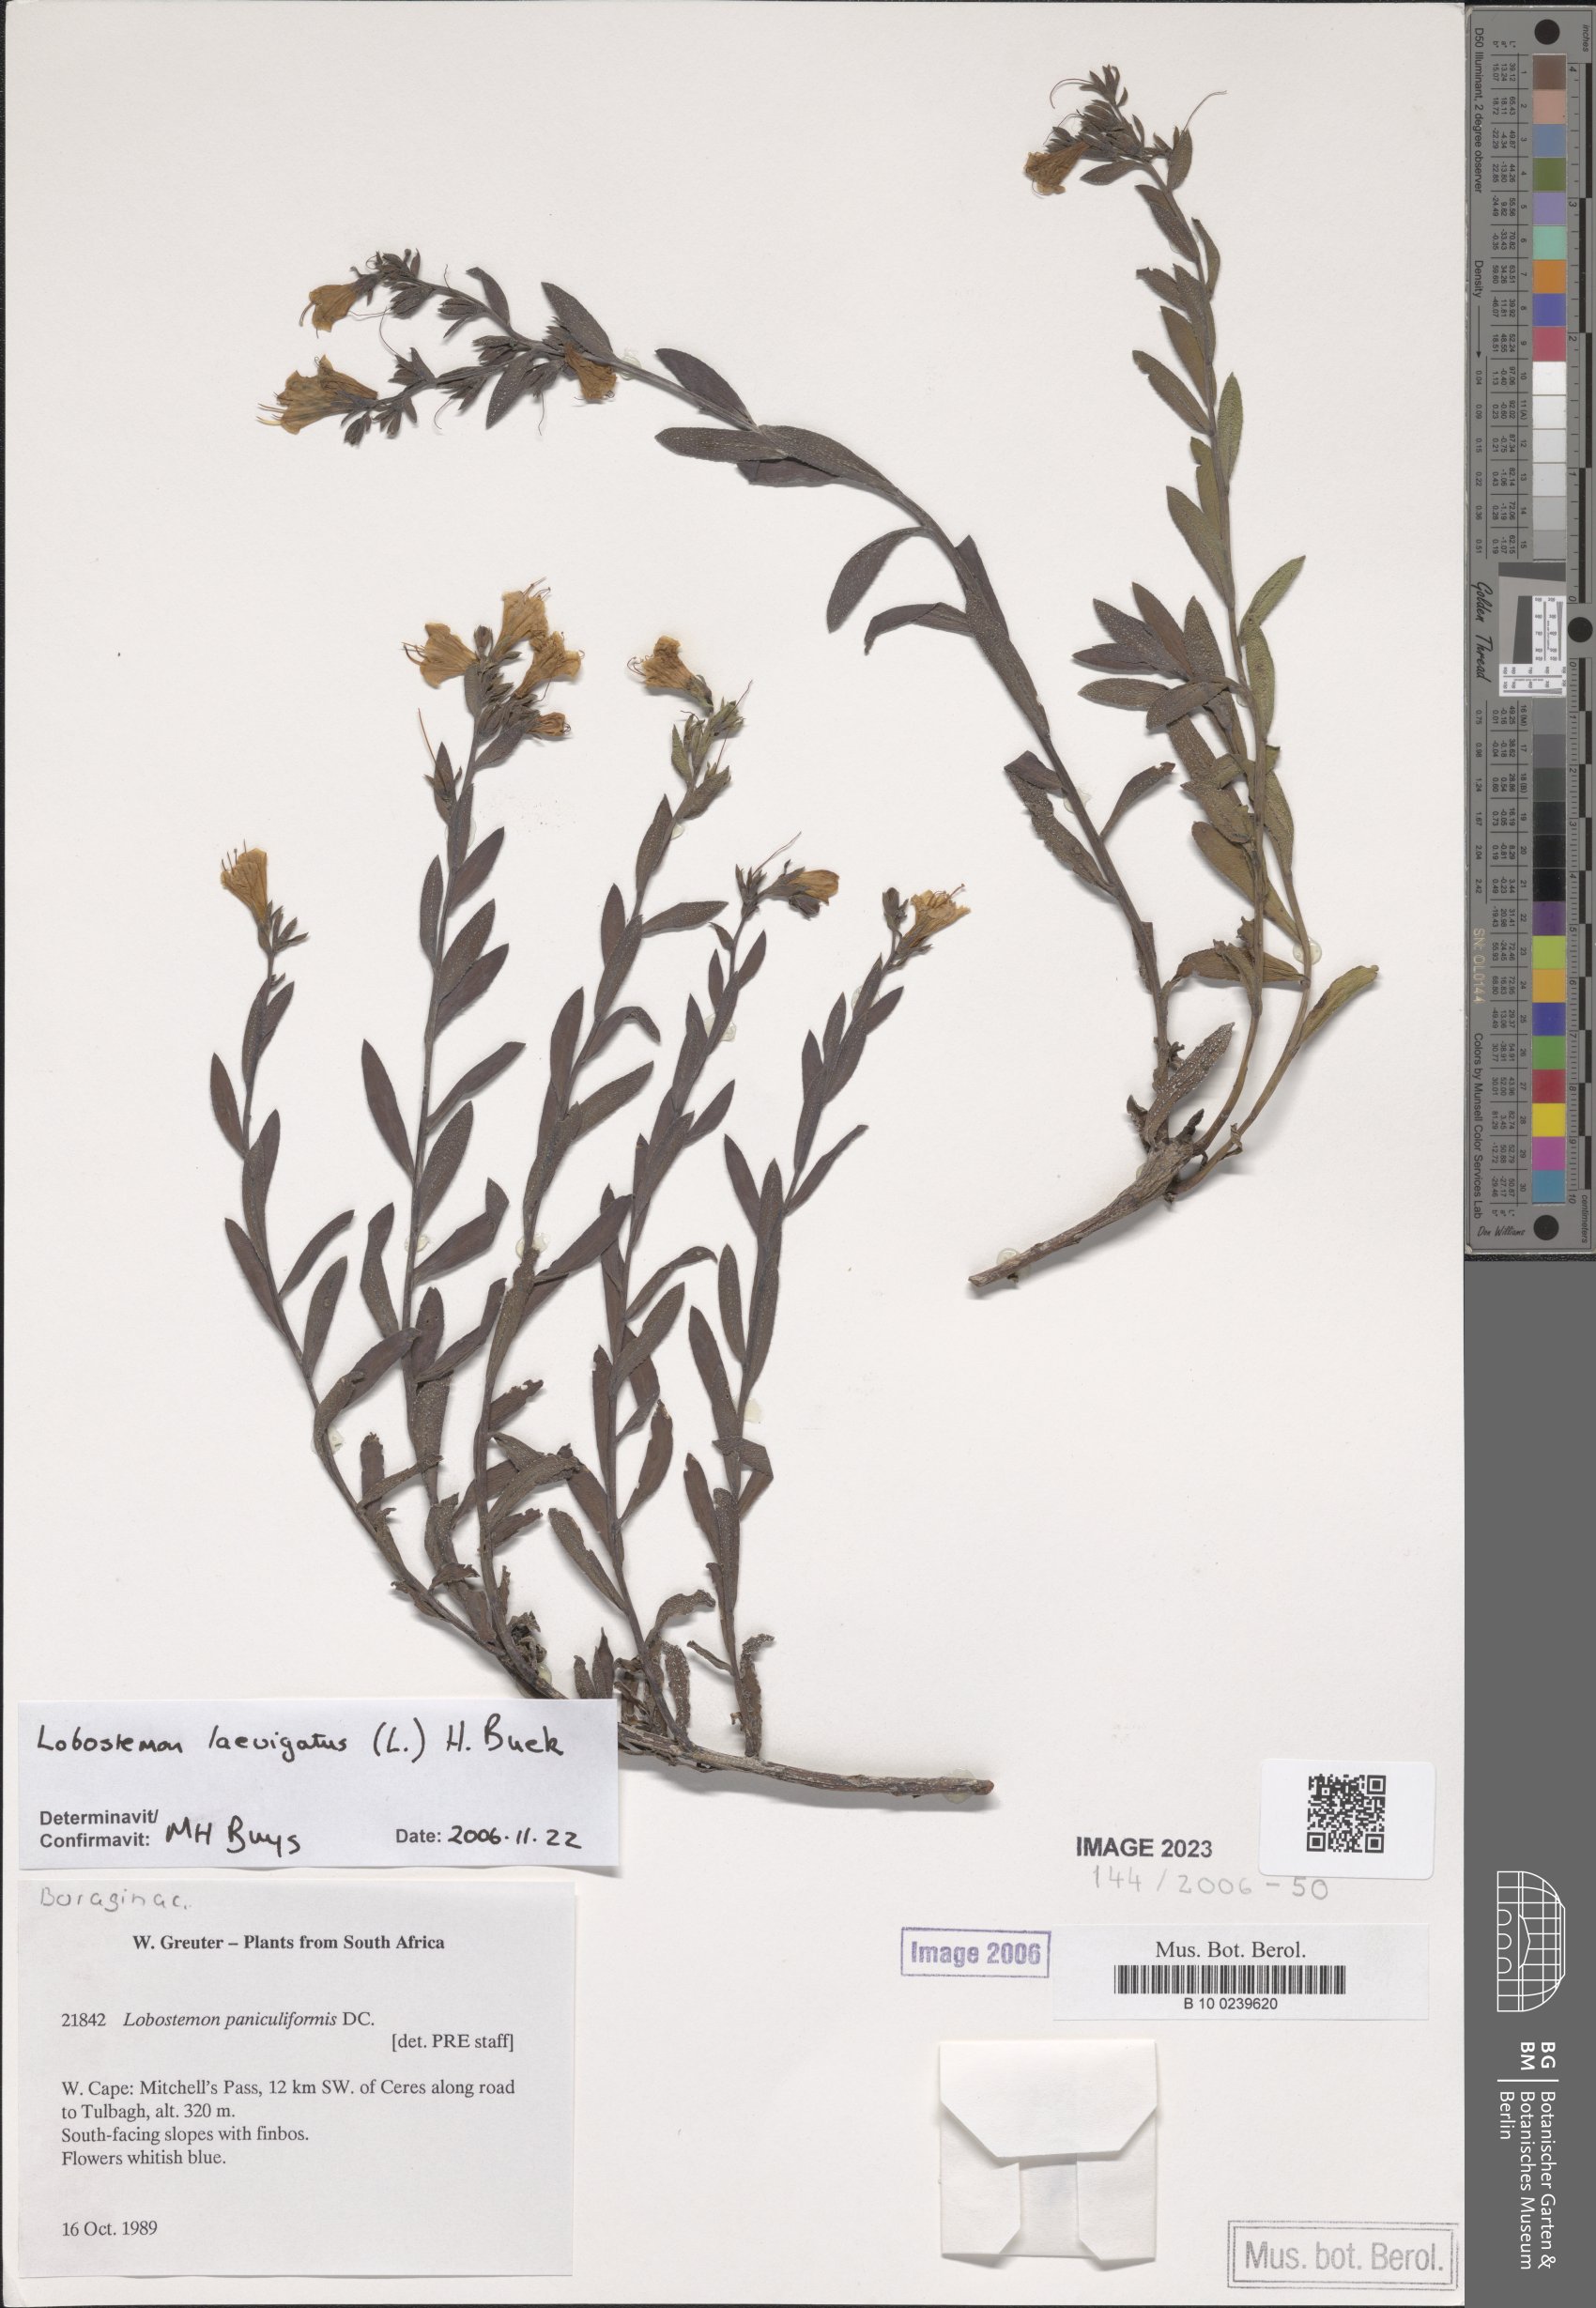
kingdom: Plantae
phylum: Tracheophyta
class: Magnoliopsida
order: Boraginales
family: Boraginaceae
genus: Lobostemon
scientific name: Lobostemon paniculiformis
